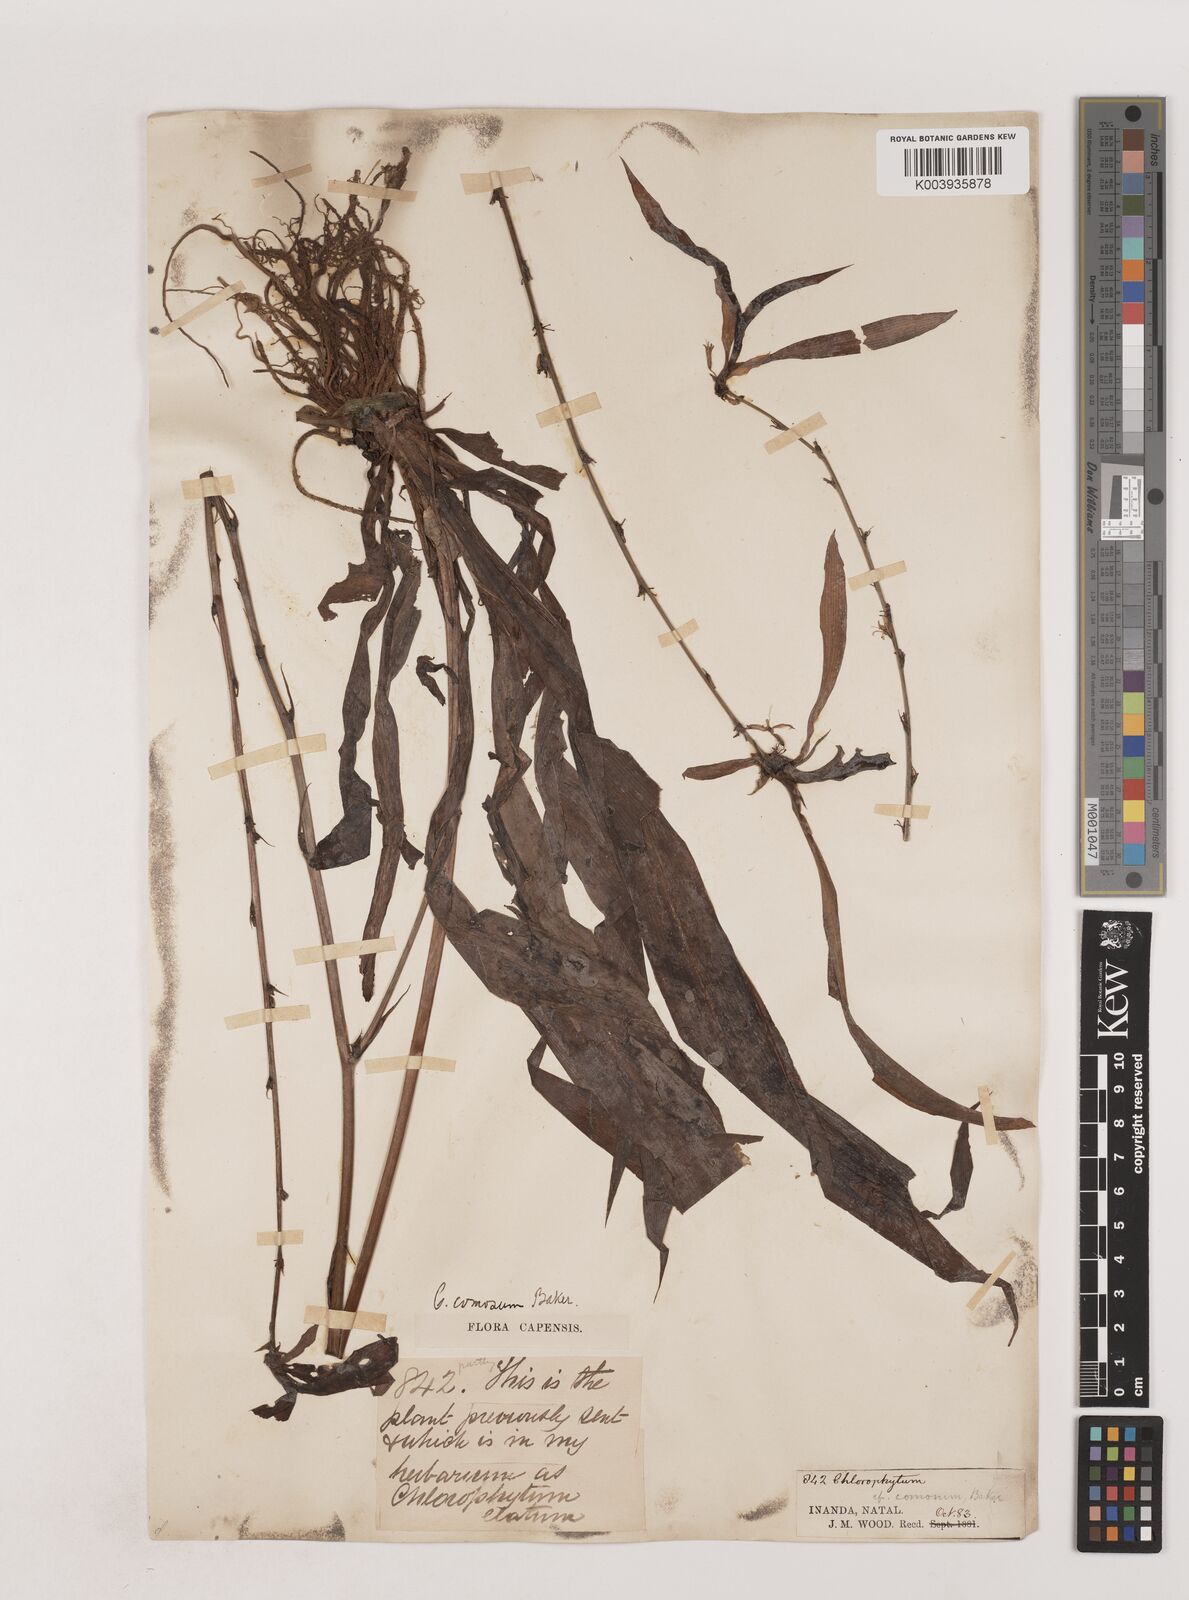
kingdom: Plantae
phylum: Tracheophyta
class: Liliopsida
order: Asparagales
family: Asparagaceae
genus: Chlorophytum
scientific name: Chlorophytum comosum
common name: Spider plant
